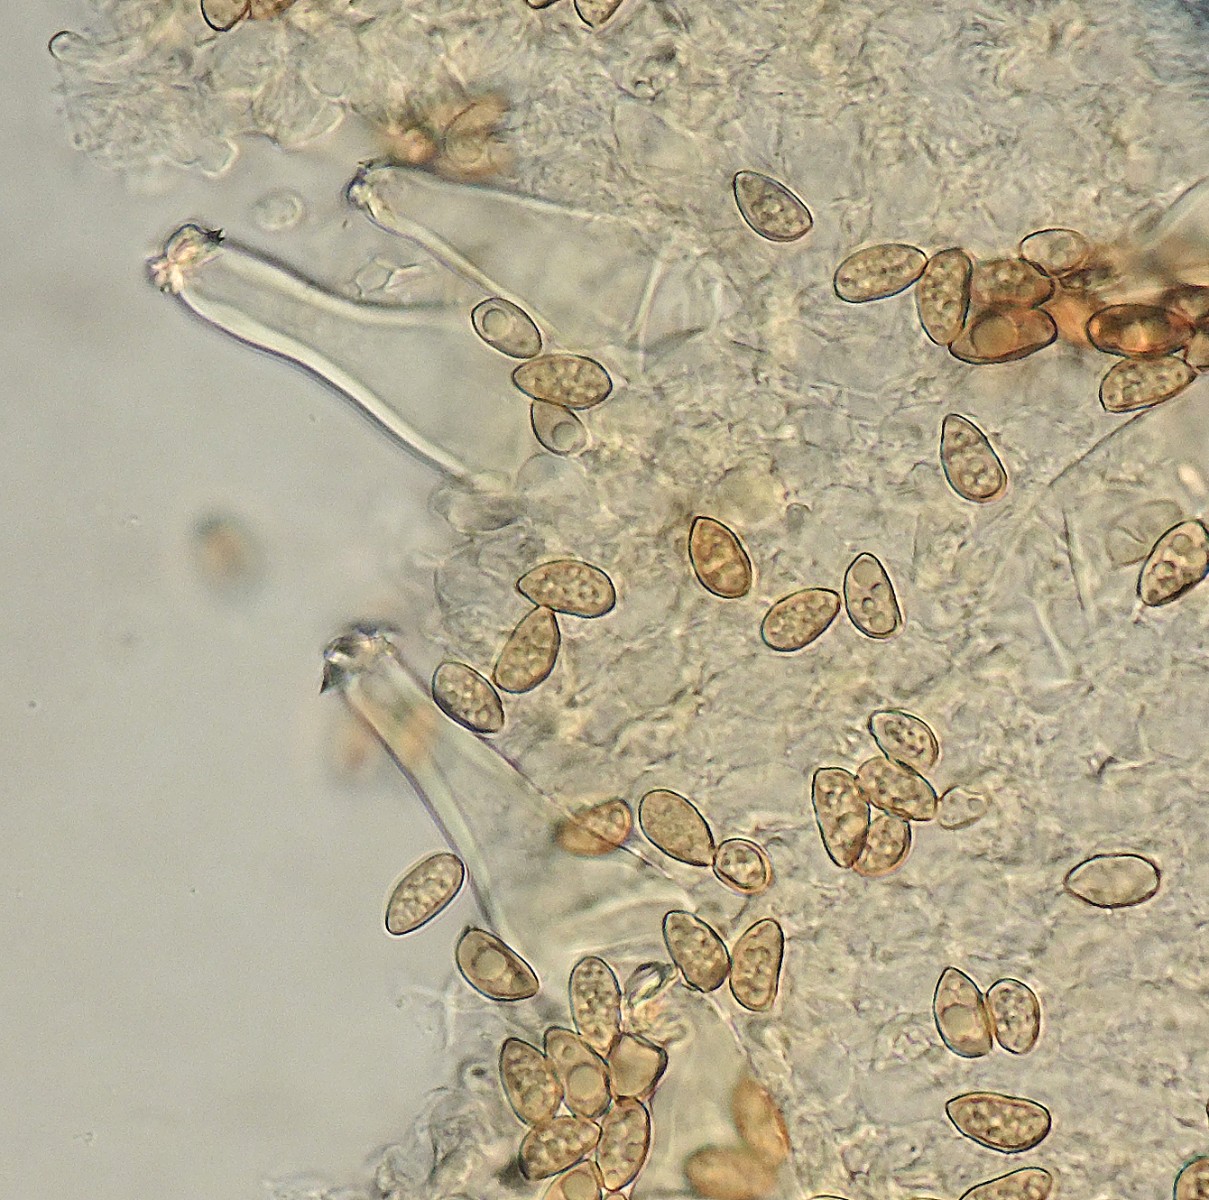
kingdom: Fungi
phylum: Basidiomycota
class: Agaricomycetes
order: Agaricales
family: Inocybaceae
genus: Inocybe
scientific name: Inocybe
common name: trævlhat
